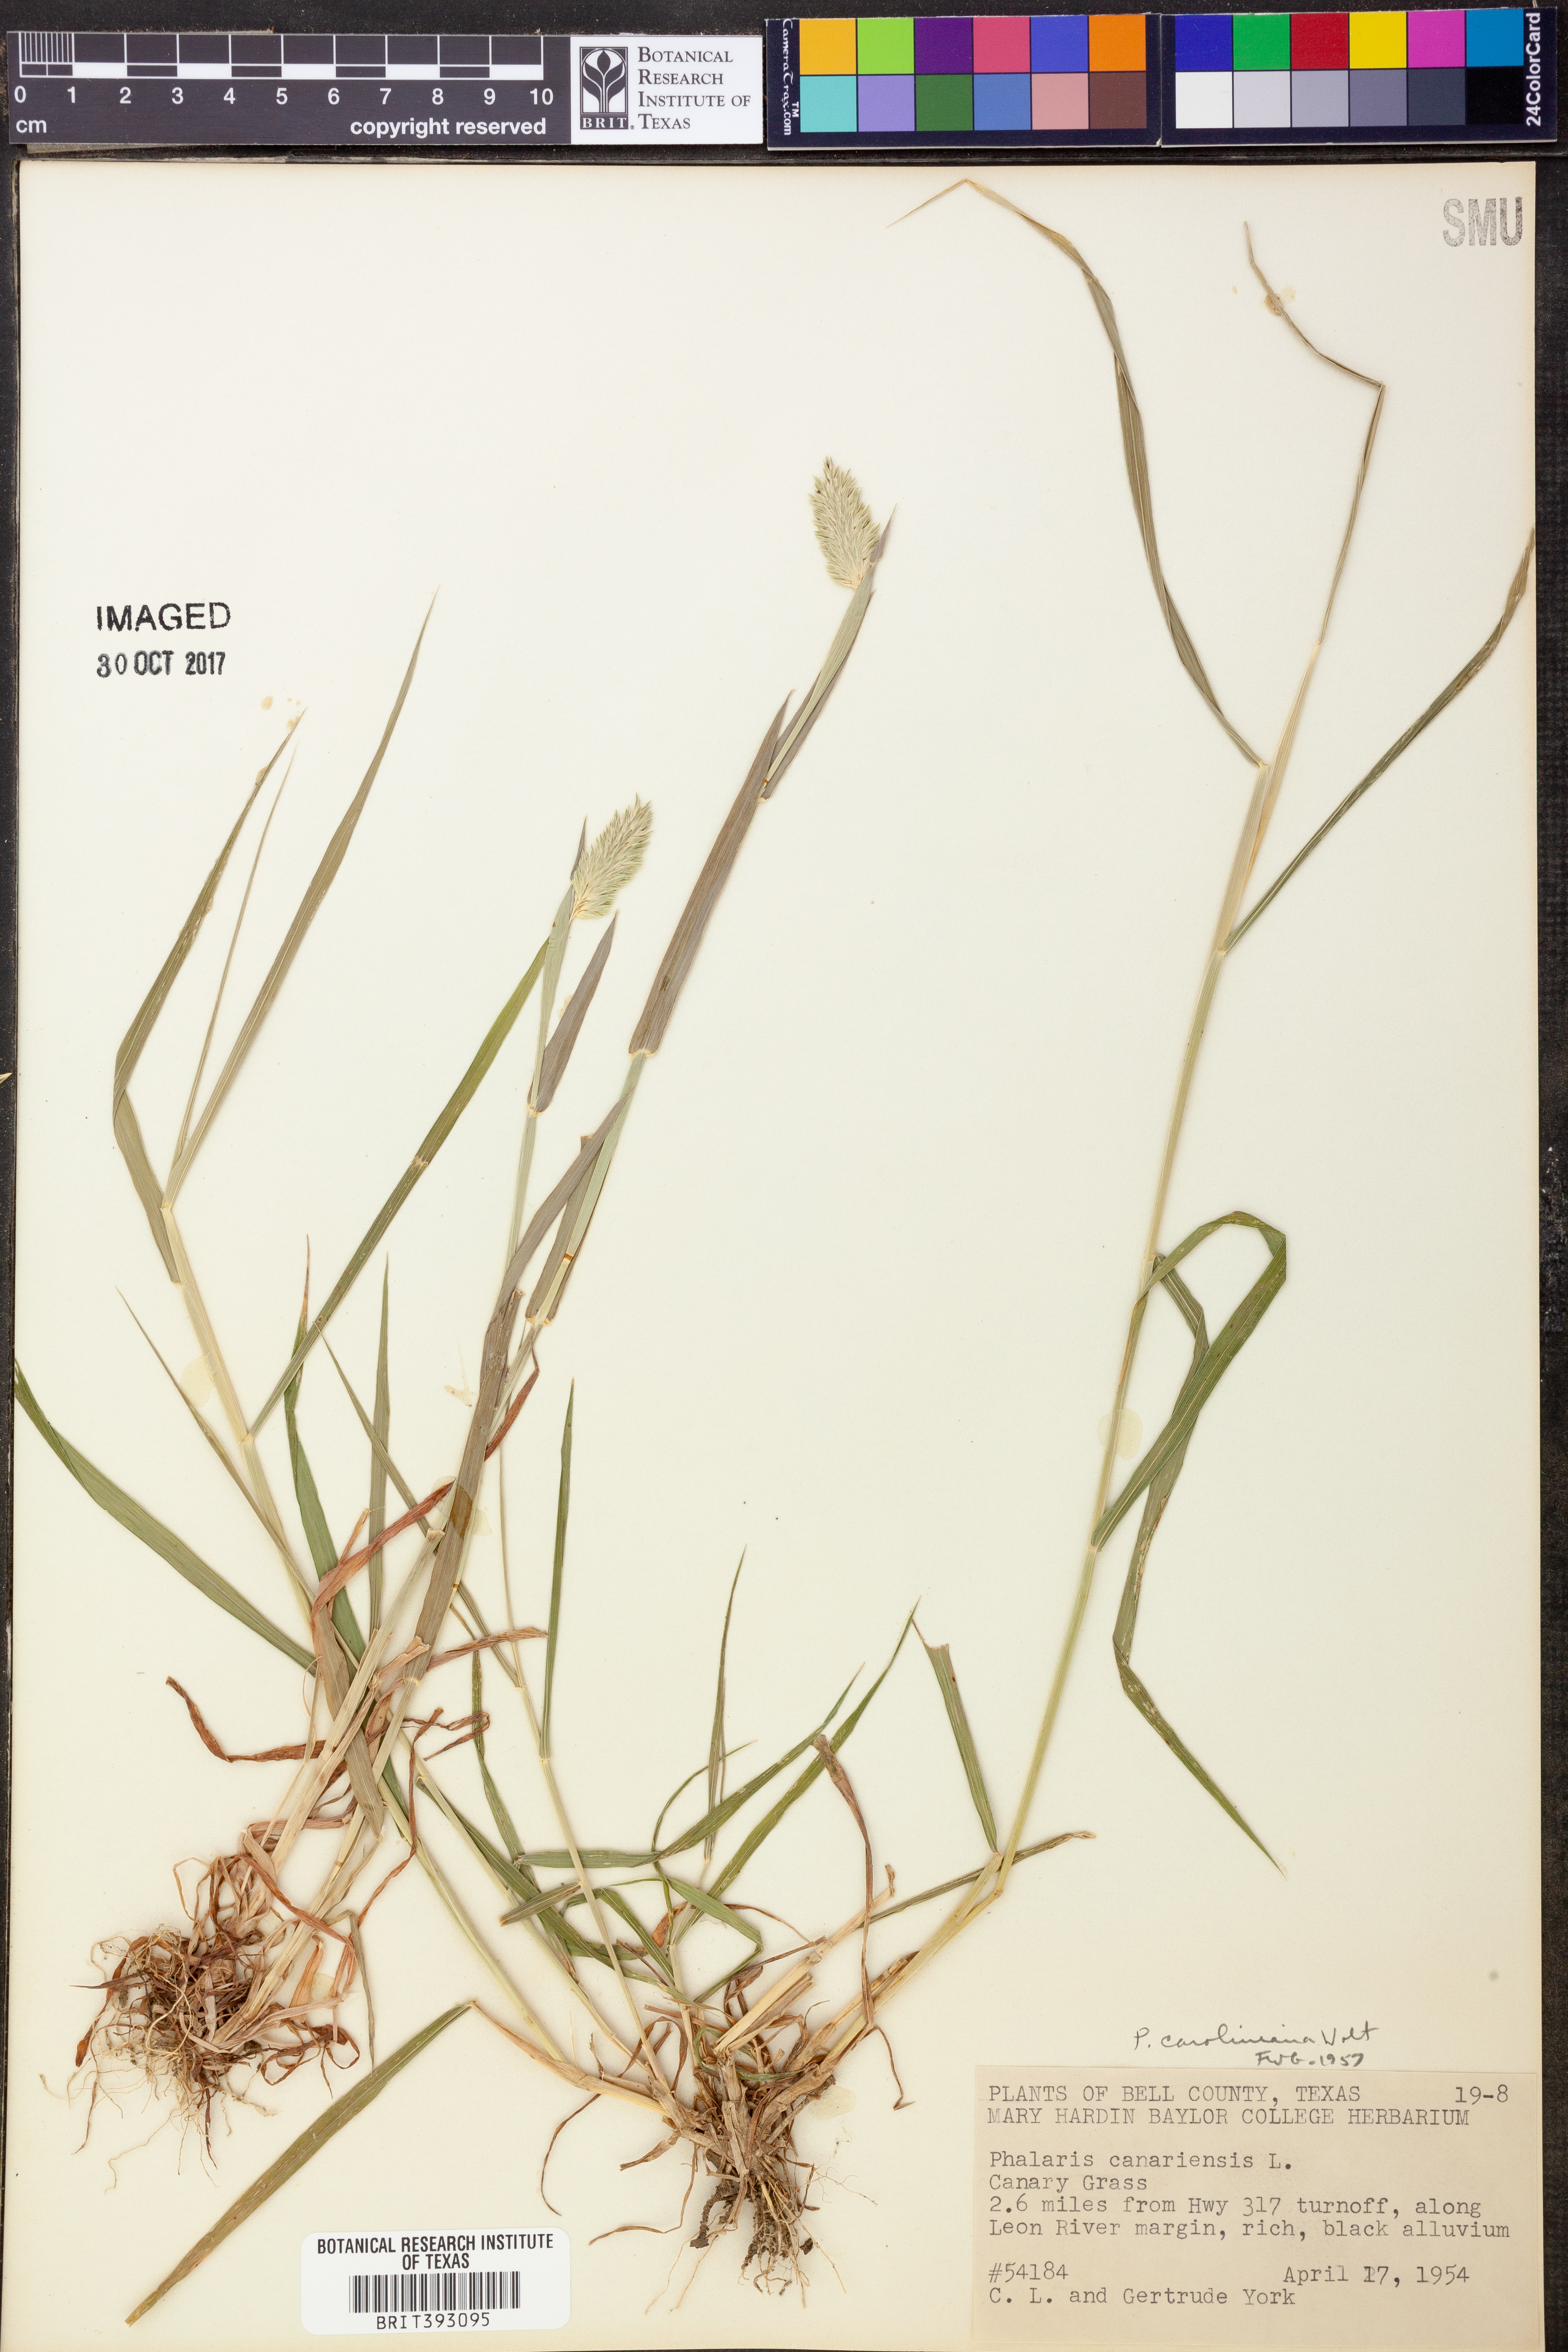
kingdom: Plantae
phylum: Tracheophyta
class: Liliopsida
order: Poales
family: Poaceae
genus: Phalaris
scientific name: Phalaris caroliniana
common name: May grass
